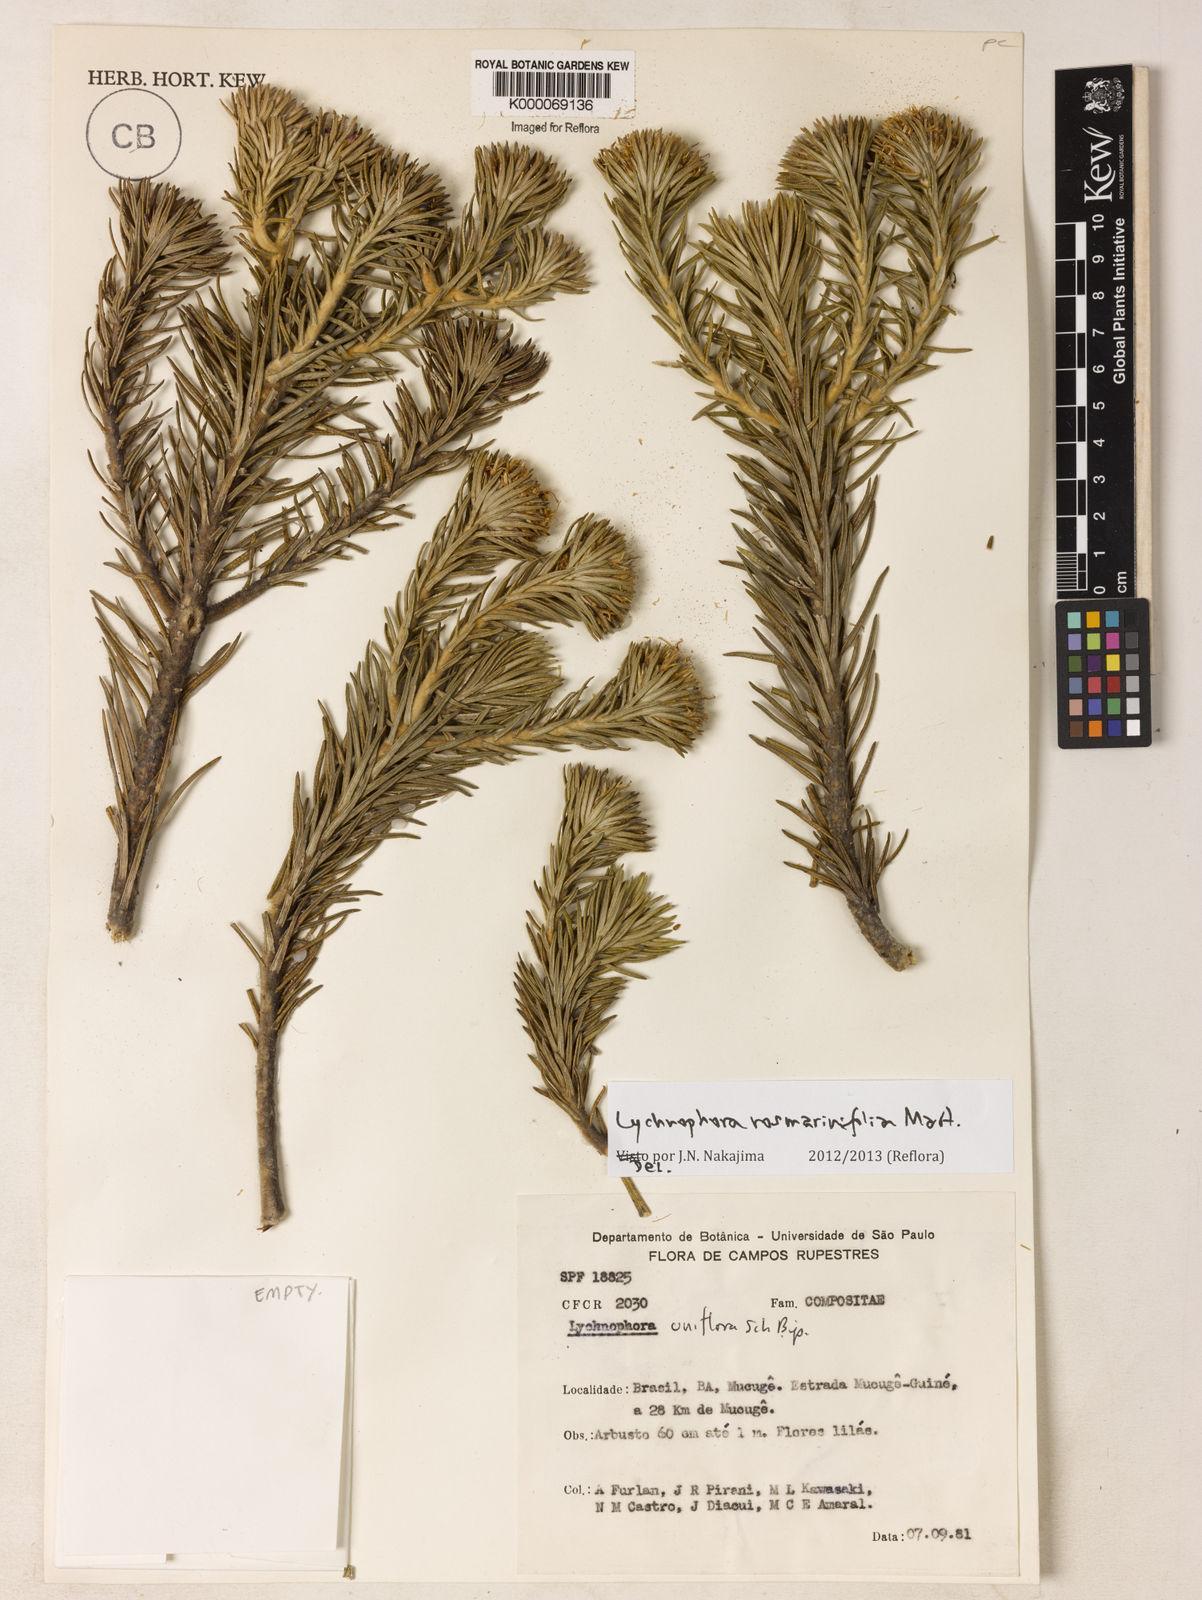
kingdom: Plantae
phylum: Tracheophyta
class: Magnoliopsida
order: Asterales
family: Asteraceae
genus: Lychnophora
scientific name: Lychnophora uniflora
